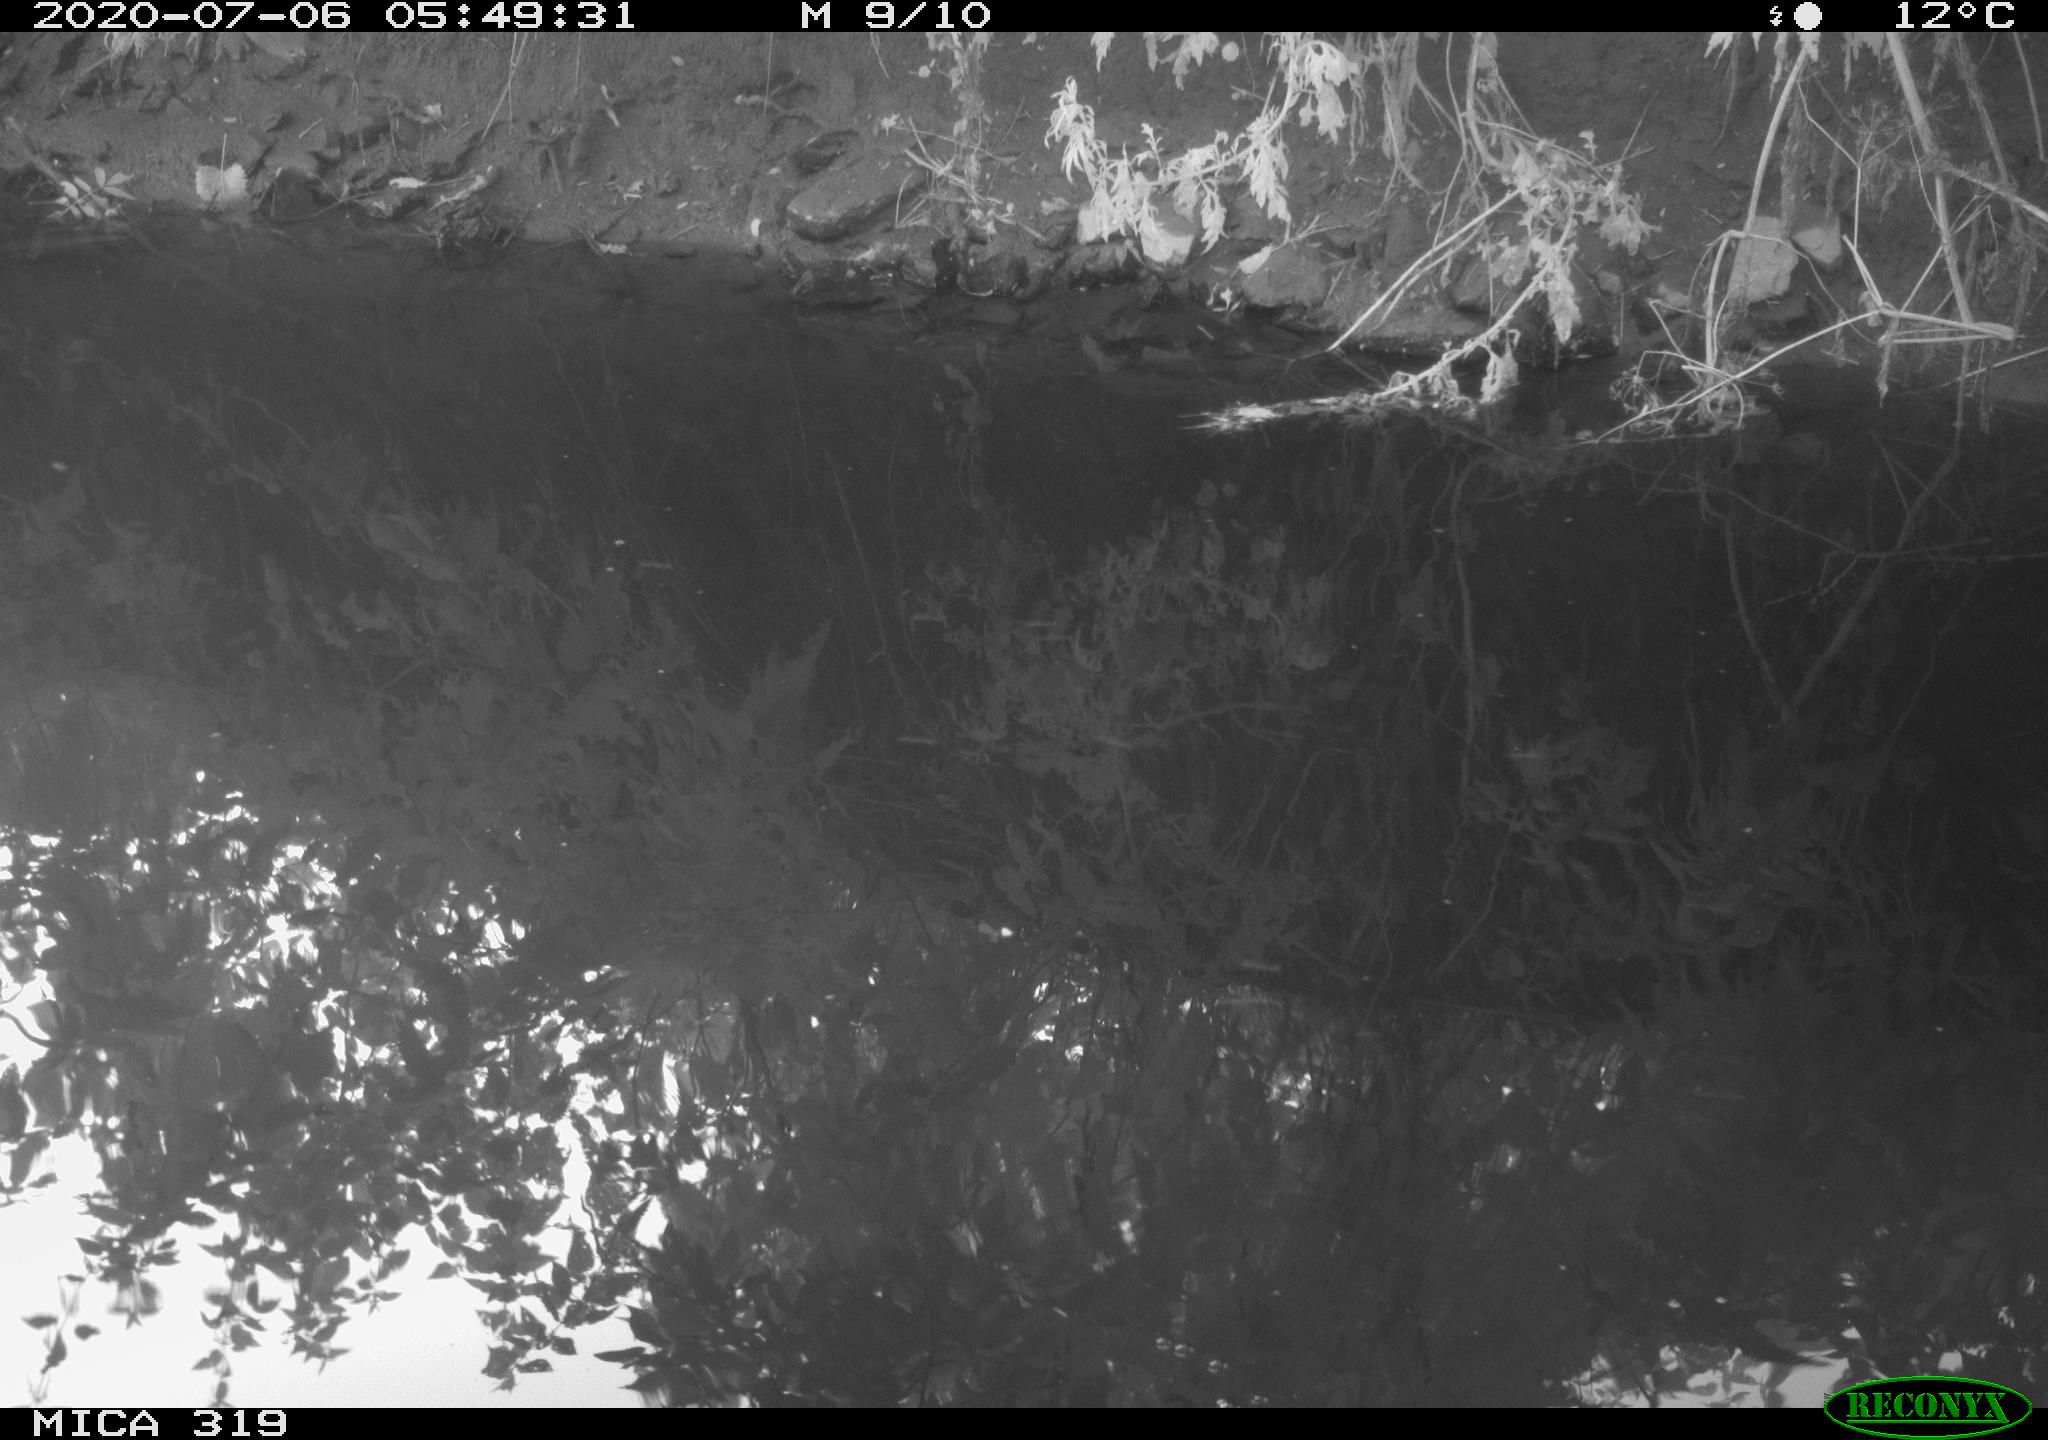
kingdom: Animalia
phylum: Chordata
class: Aves
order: Anseriformes
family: Anatidae
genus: Anas
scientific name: Anas platyrhynchos
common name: Mallard
